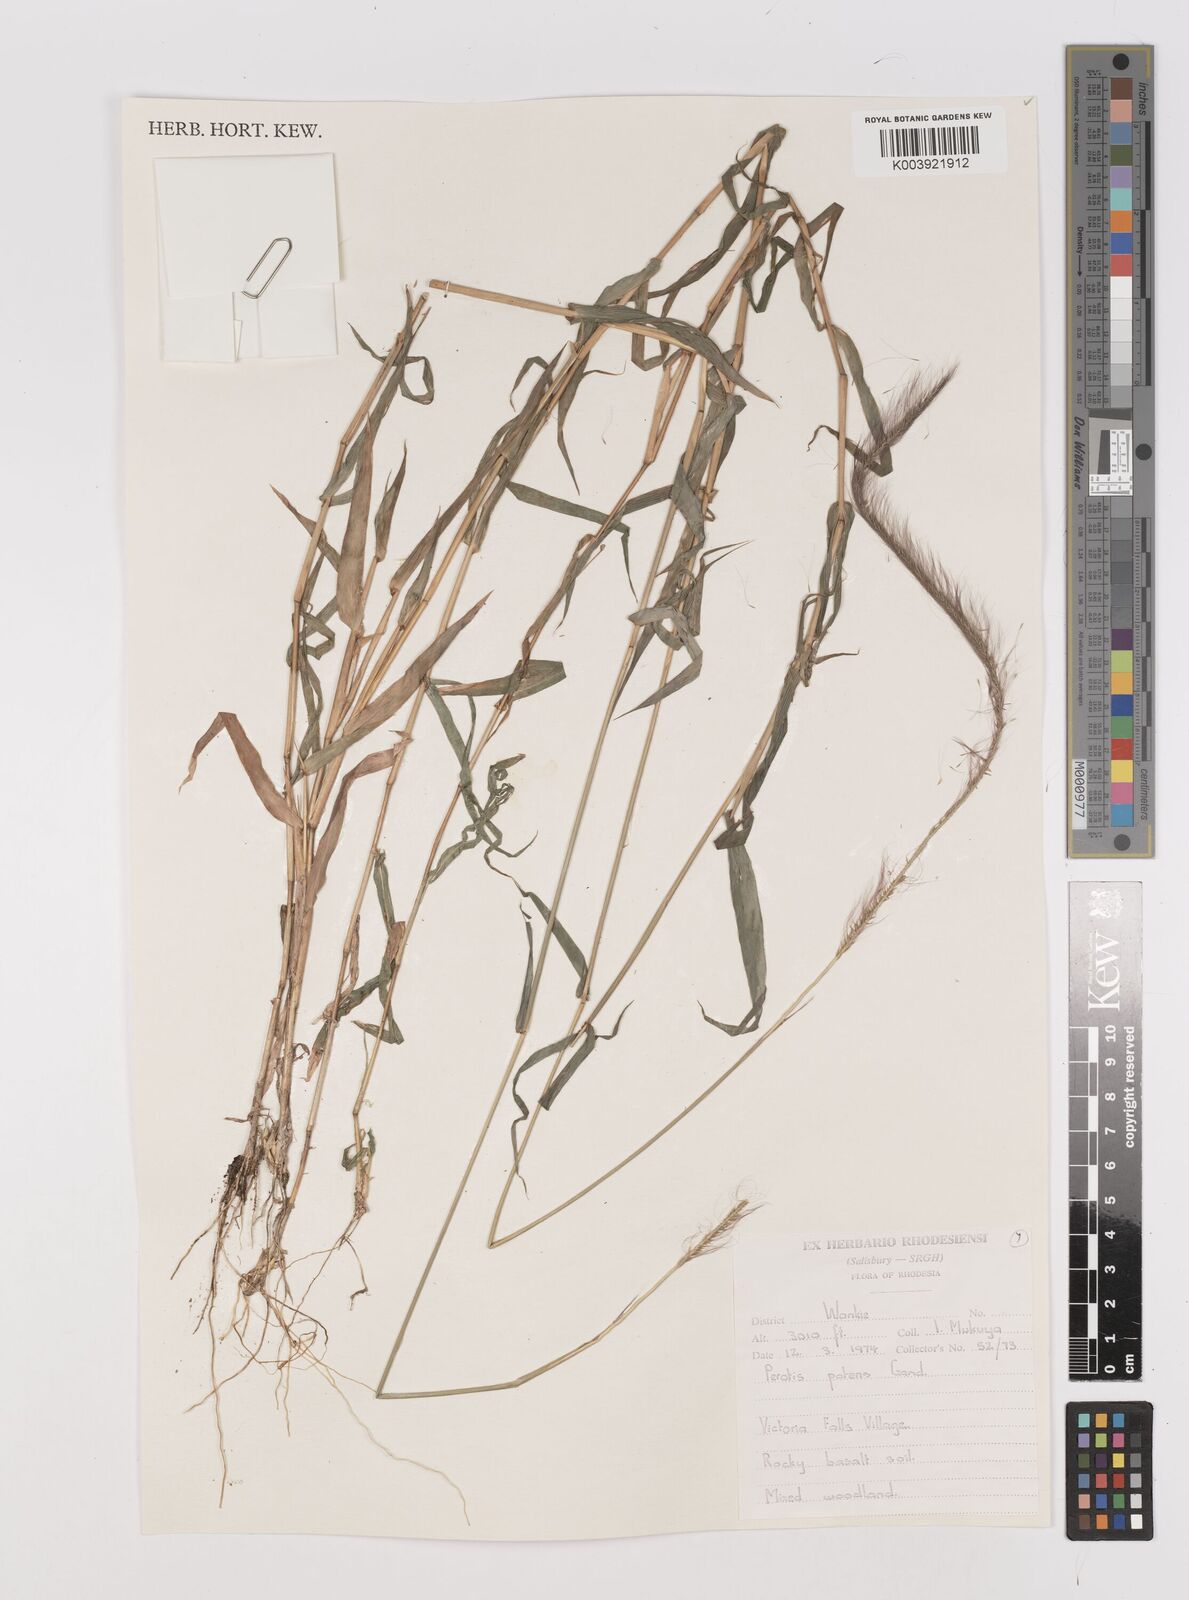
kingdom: Plantae
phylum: Tracheophyta
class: Liliopsida
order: Poales
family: Poaceae
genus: Perotis
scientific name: Perotis patens
